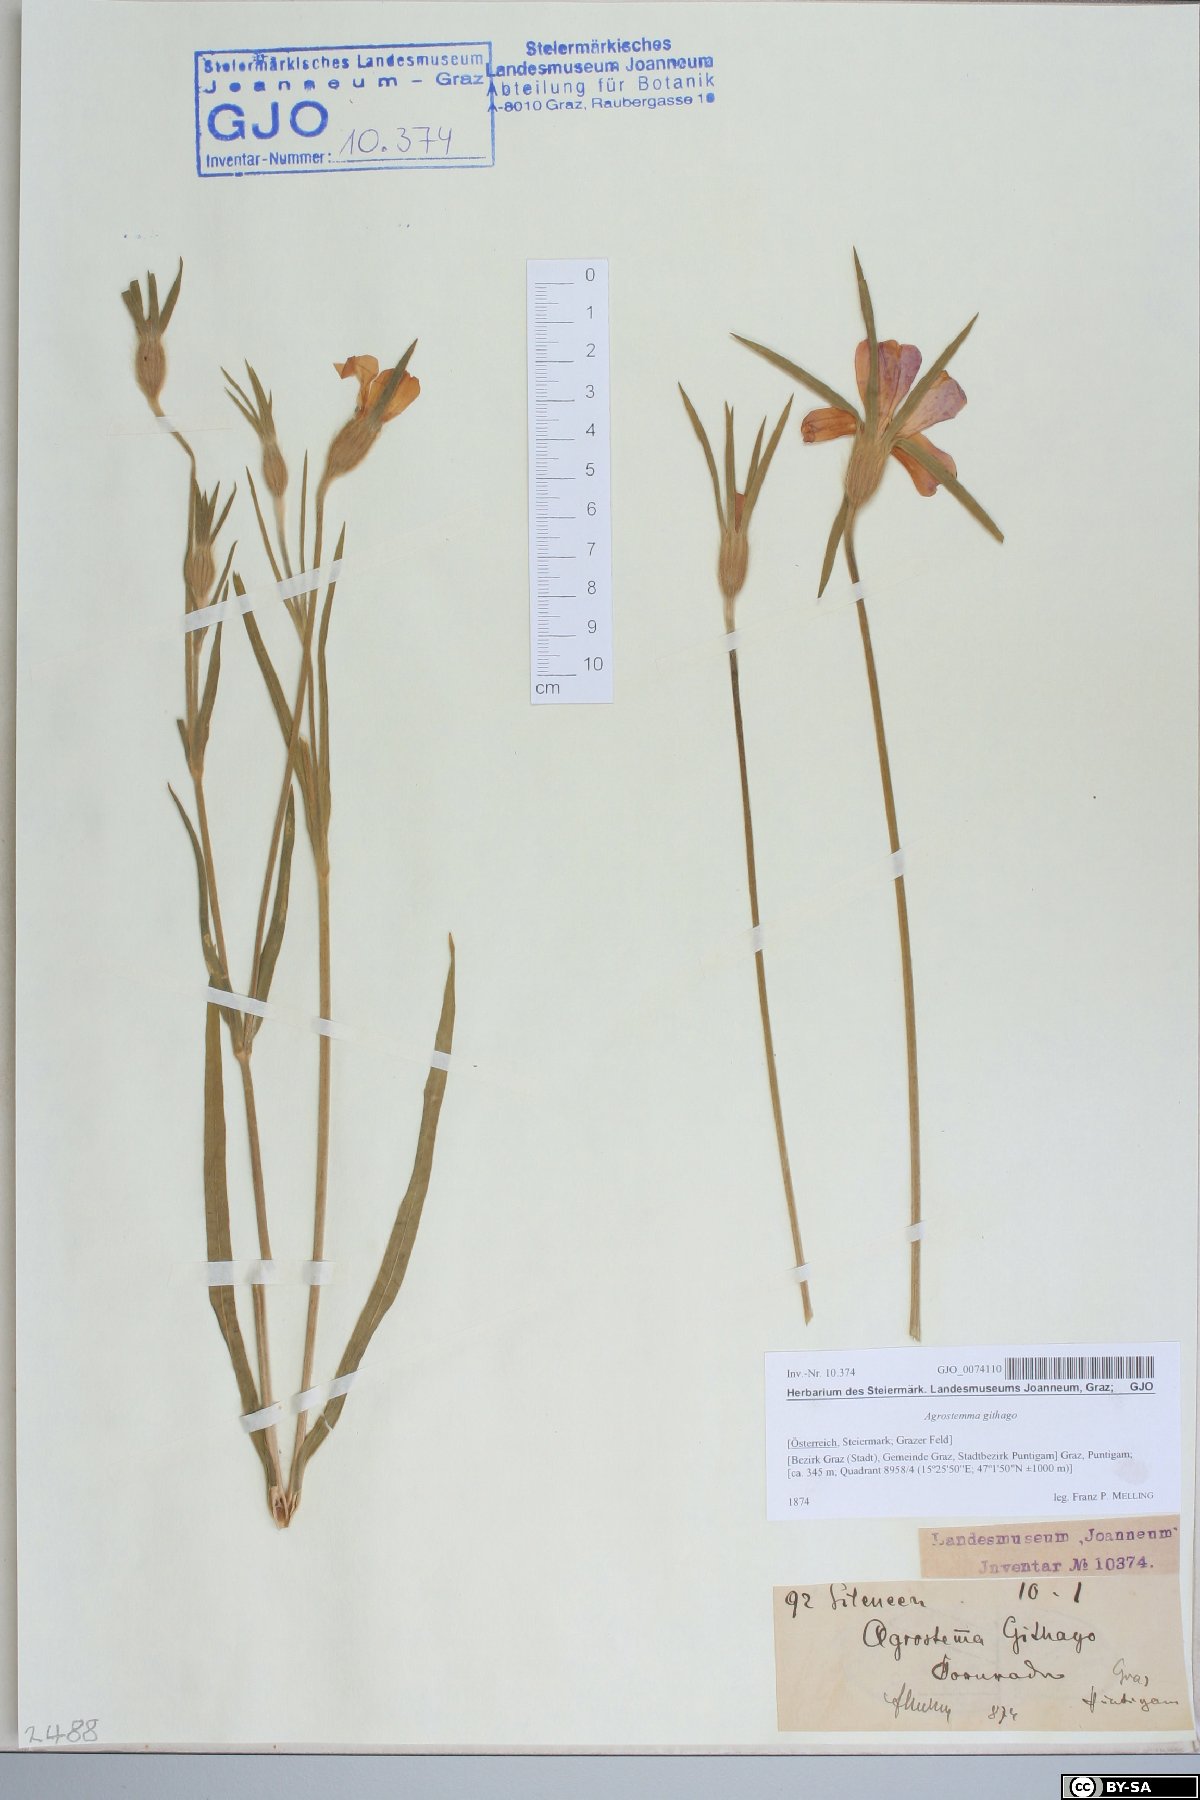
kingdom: Plantae
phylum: Tracheophyta
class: Magnoliopsida
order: Caryophyllales
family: Caryophyllaceae
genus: Agrostemma
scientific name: Agrostemma githago
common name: Common corncockle
